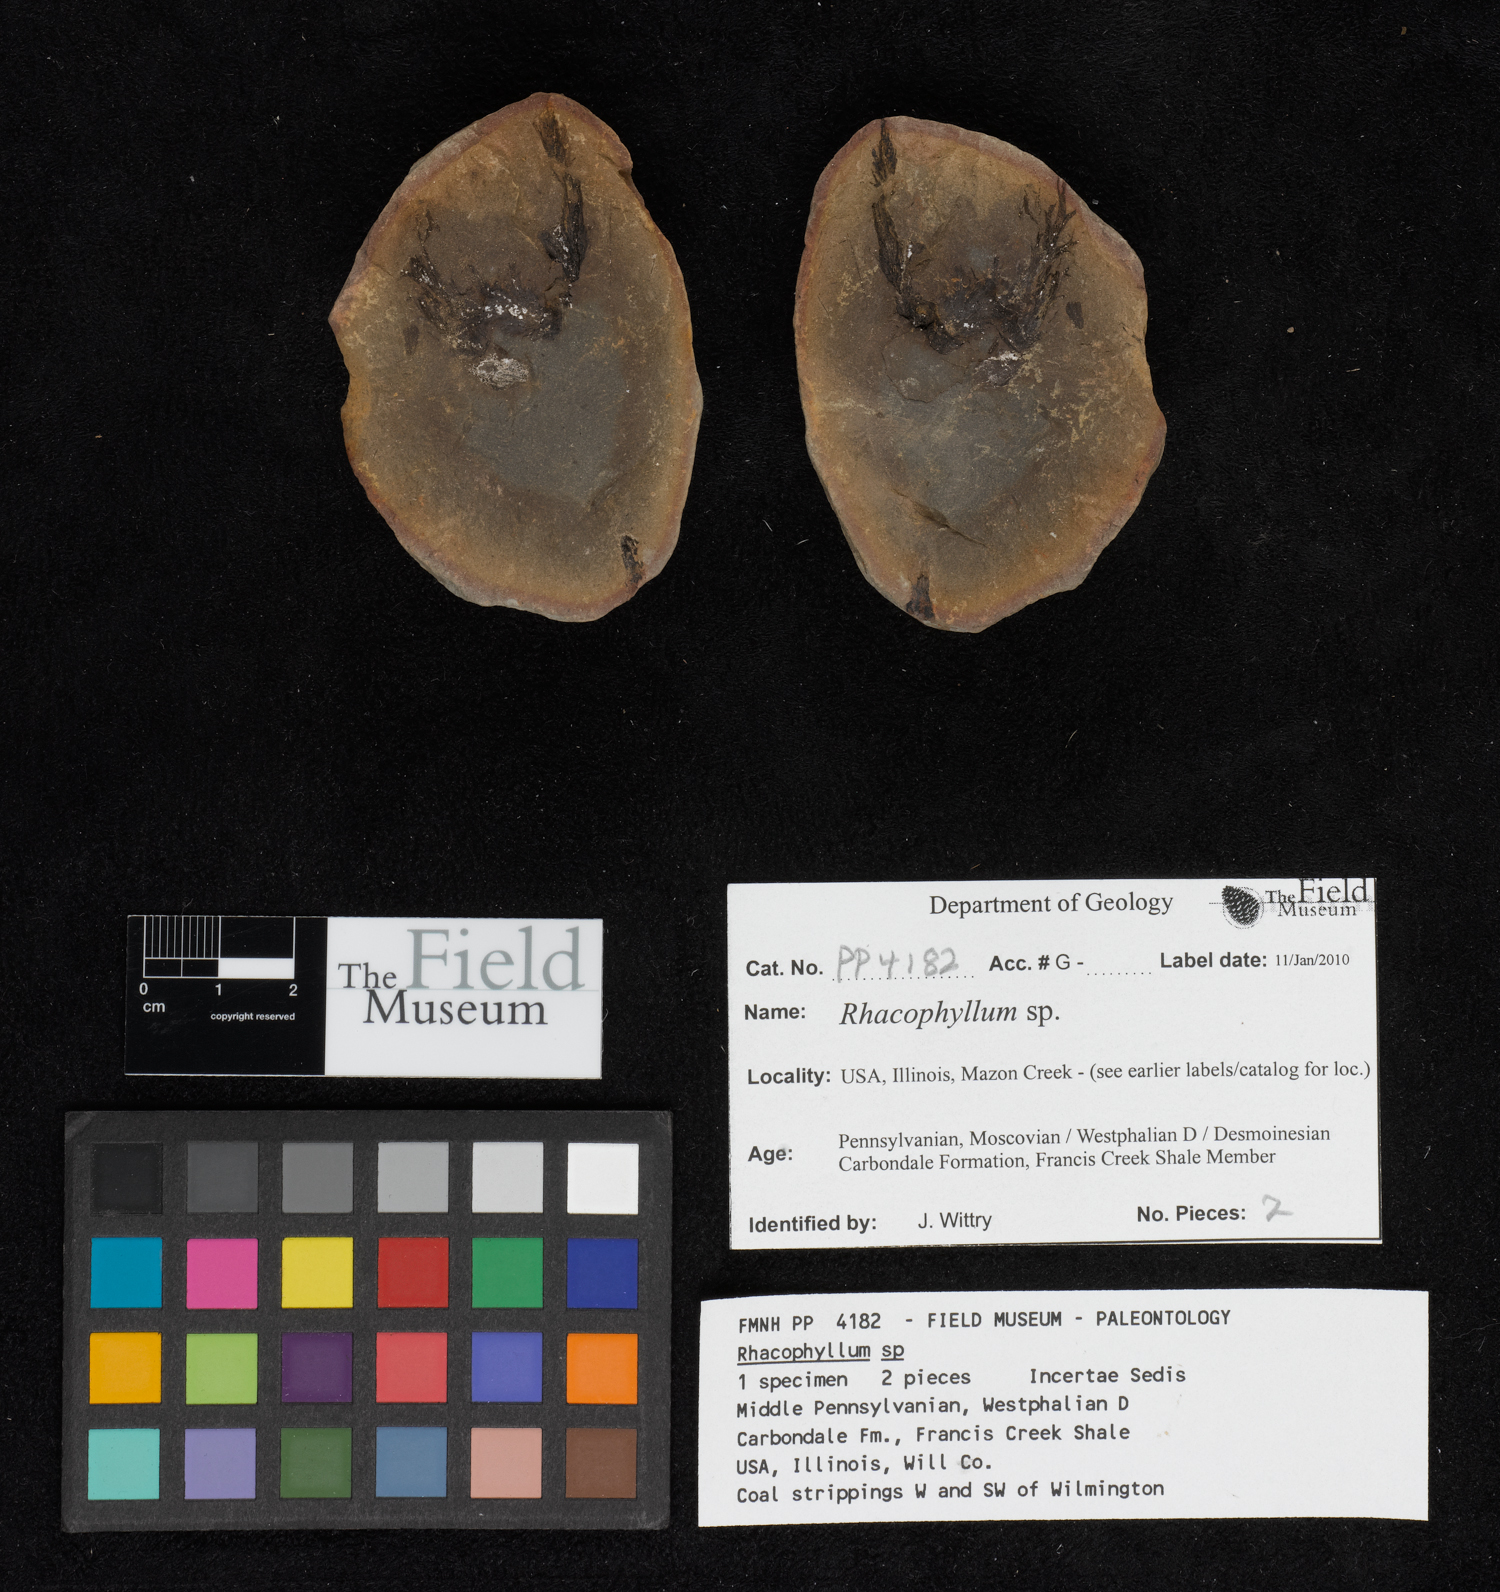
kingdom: Plantae
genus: Rhacophyllum
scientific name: Rhacophyllum
